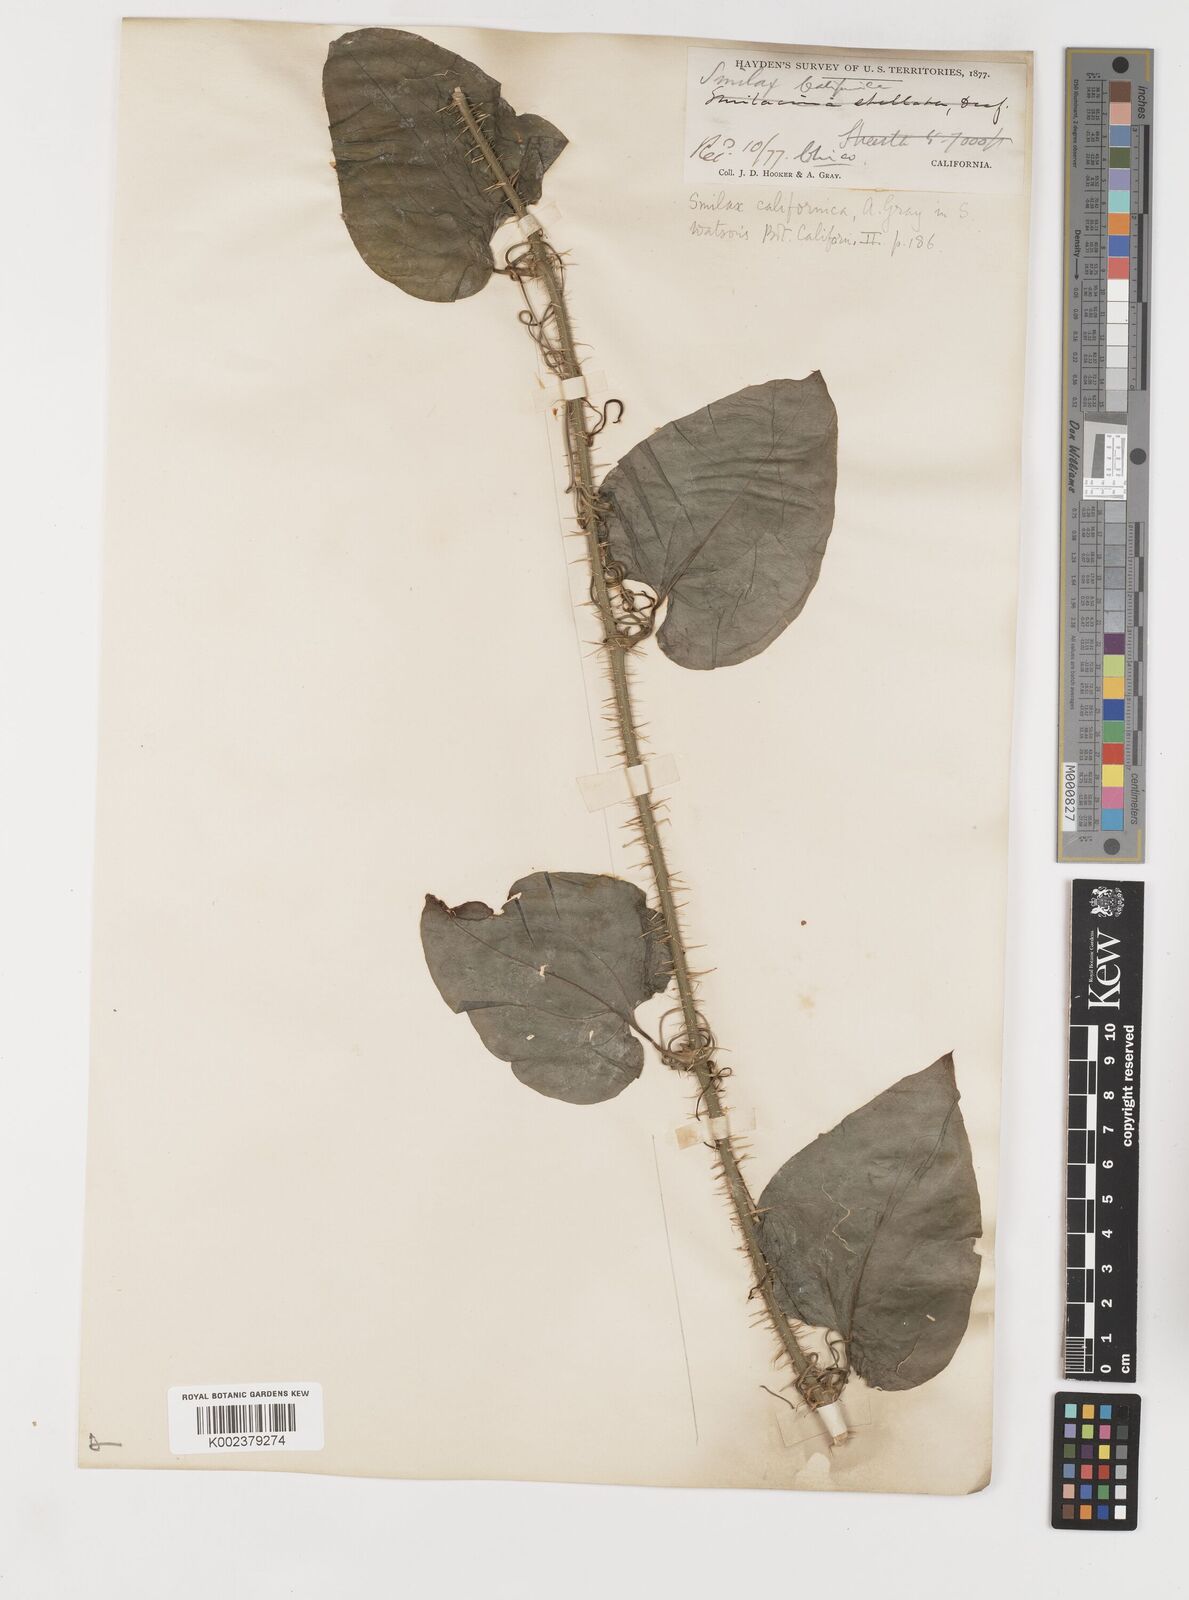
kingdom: Plantae
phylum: Tracheophyta
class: Liliopsida
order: Liliales
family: Smilacaceae
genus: Smilax
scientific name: Smilax californica
